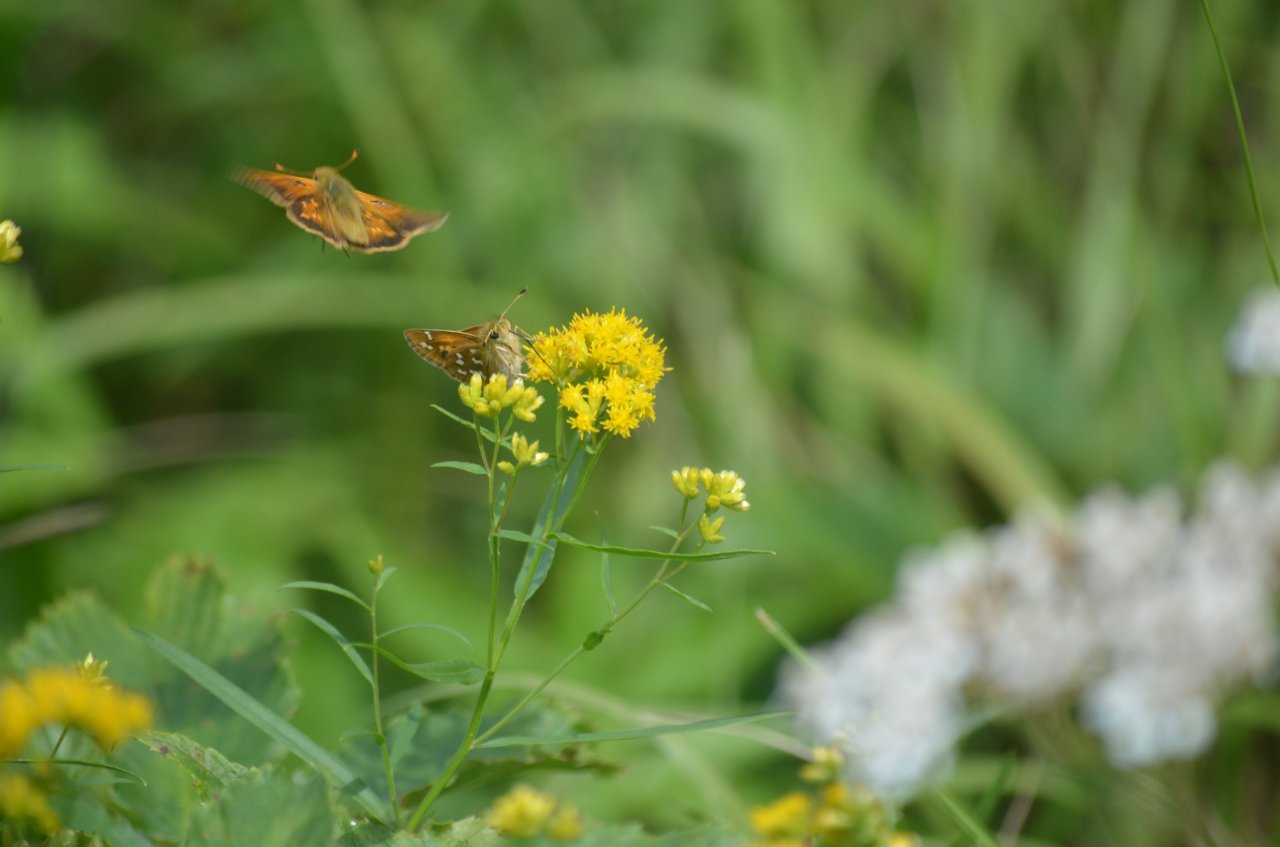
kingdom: Animalia
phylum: Arthropoda
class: Insecta
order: Lepidoptera
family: Hesperiidae
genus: Hesperia
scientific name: Hesperia comma
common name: Common Branded Skipper
